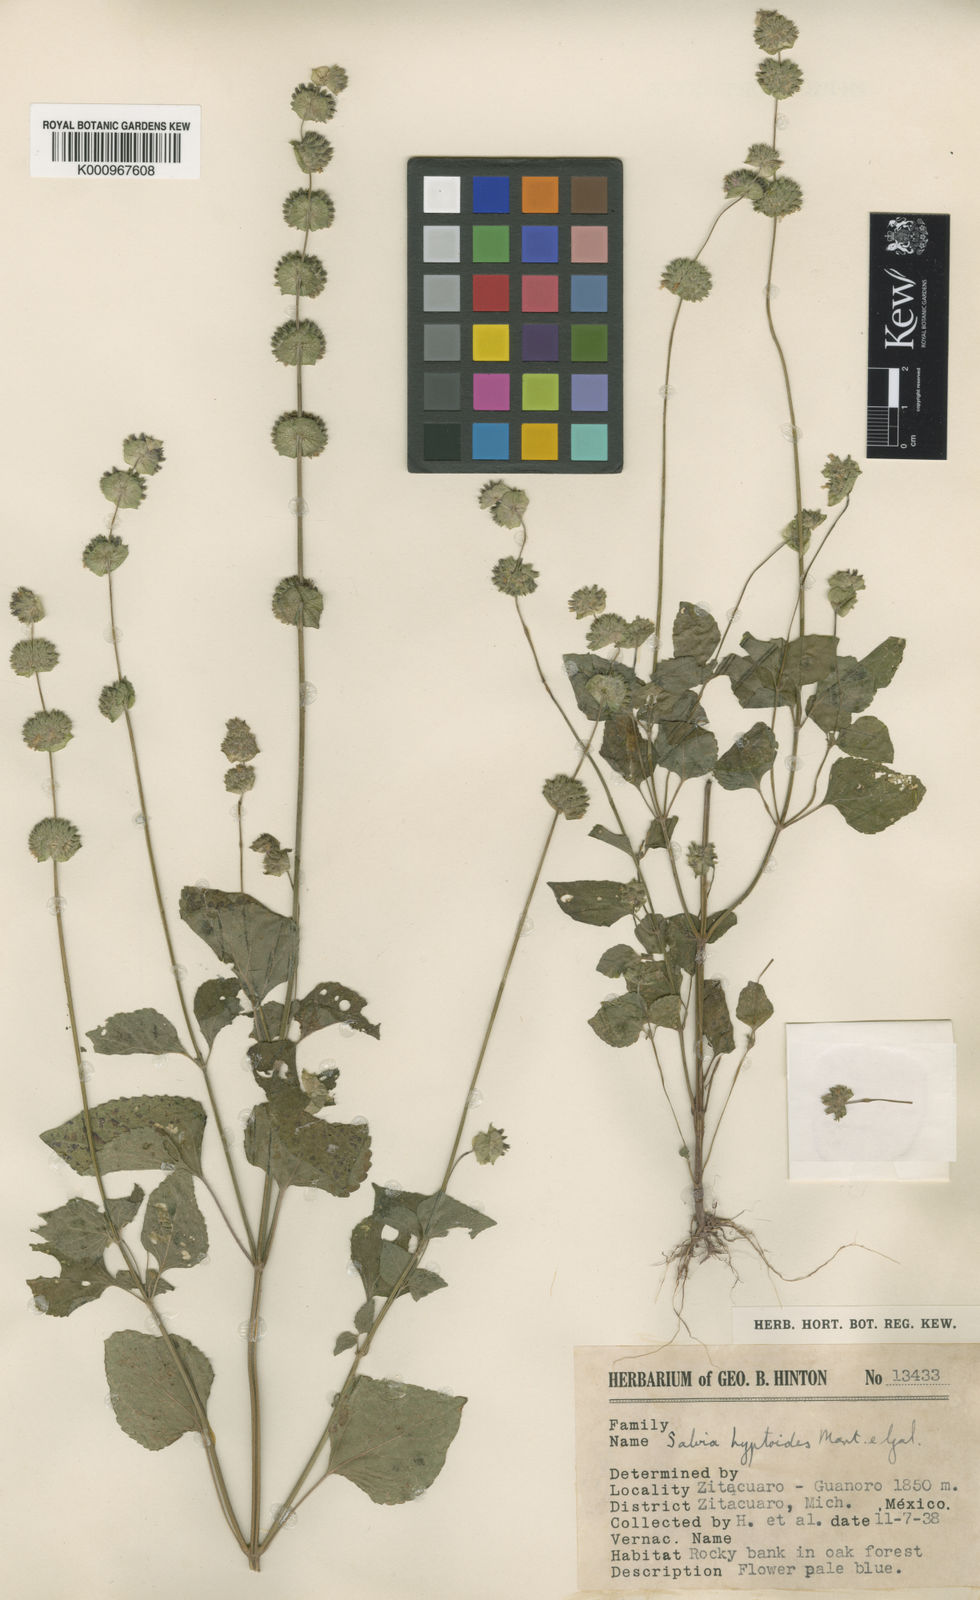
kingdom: Plantae
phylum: Tracheophyta
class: Magnoliopsida
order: Lamiales
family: Lamiaceae
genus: Salvia
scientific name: Salvia lasiocephala
